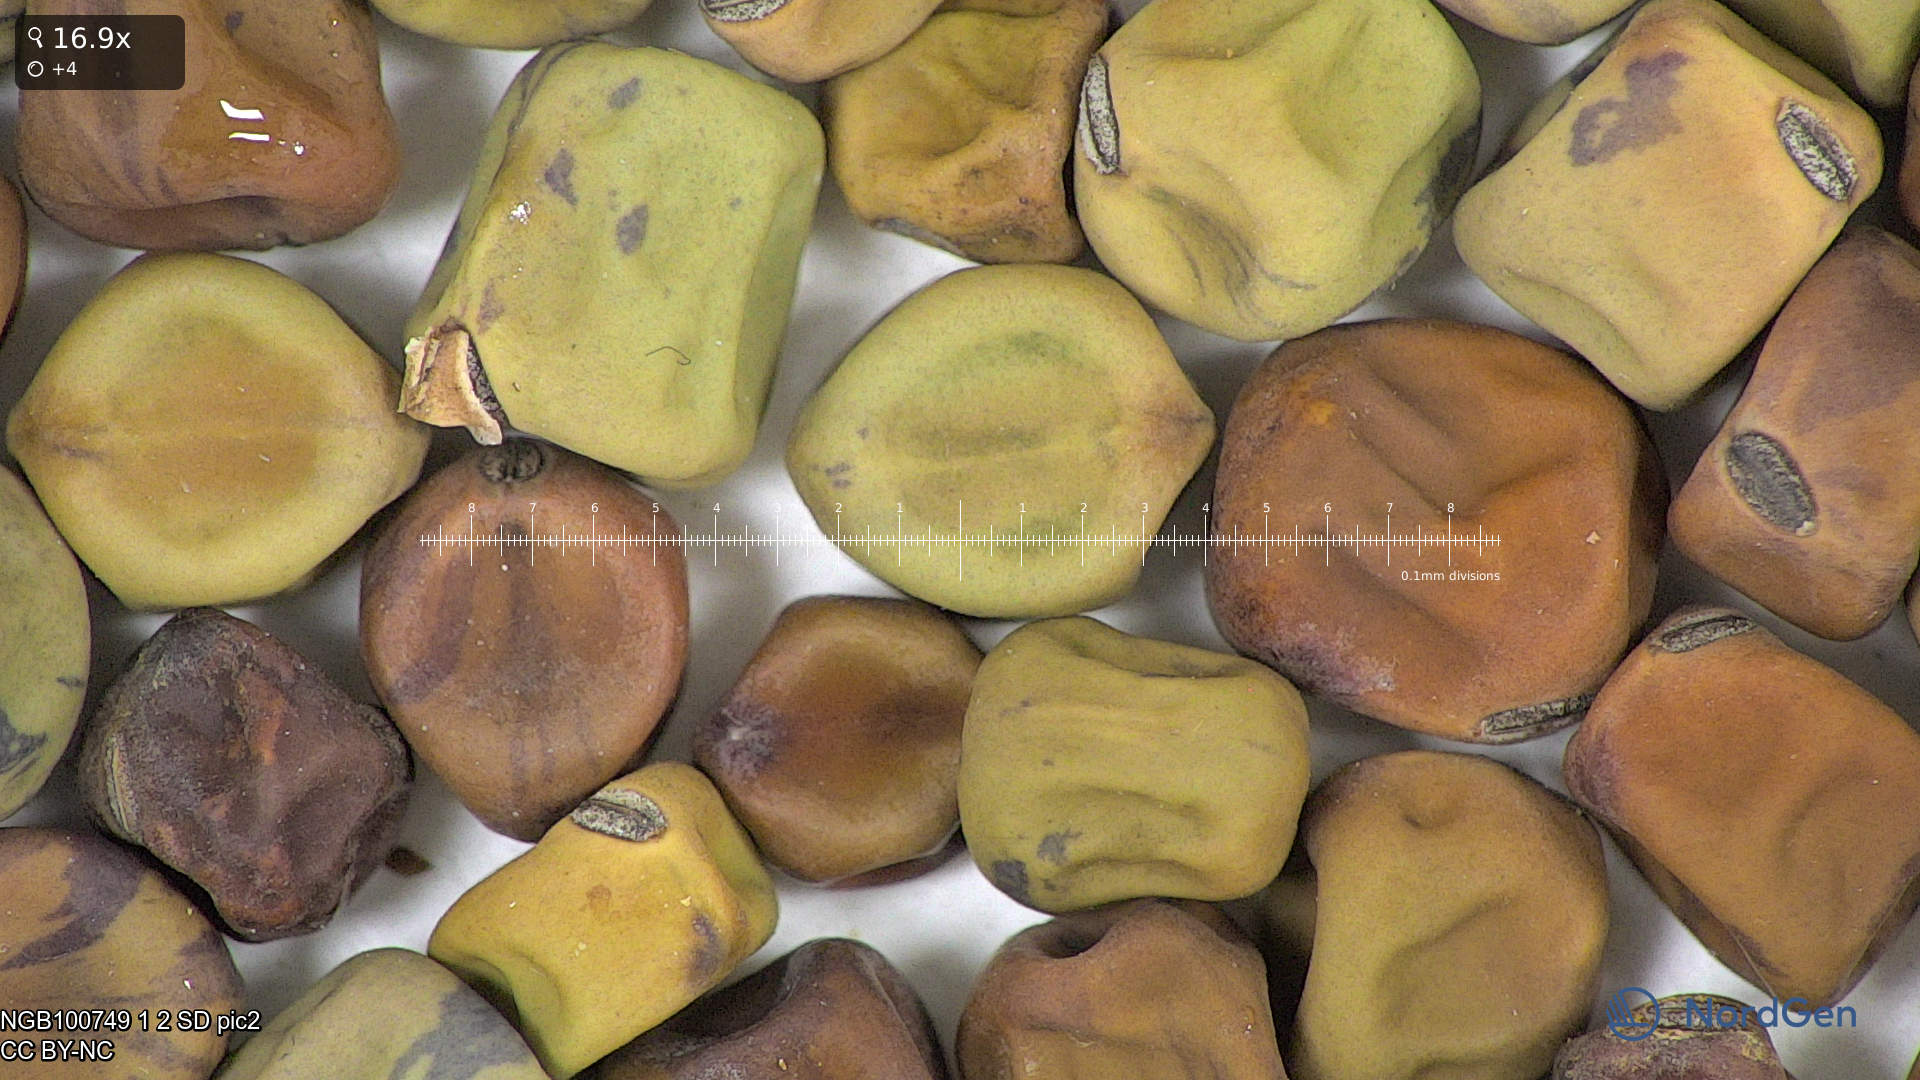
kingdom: Plantae
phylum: Tracheophyta
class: Magnoliopsida
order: Fabales
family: Fabaceae
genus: Lathyrus
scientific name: Lathyrus oleraceus
